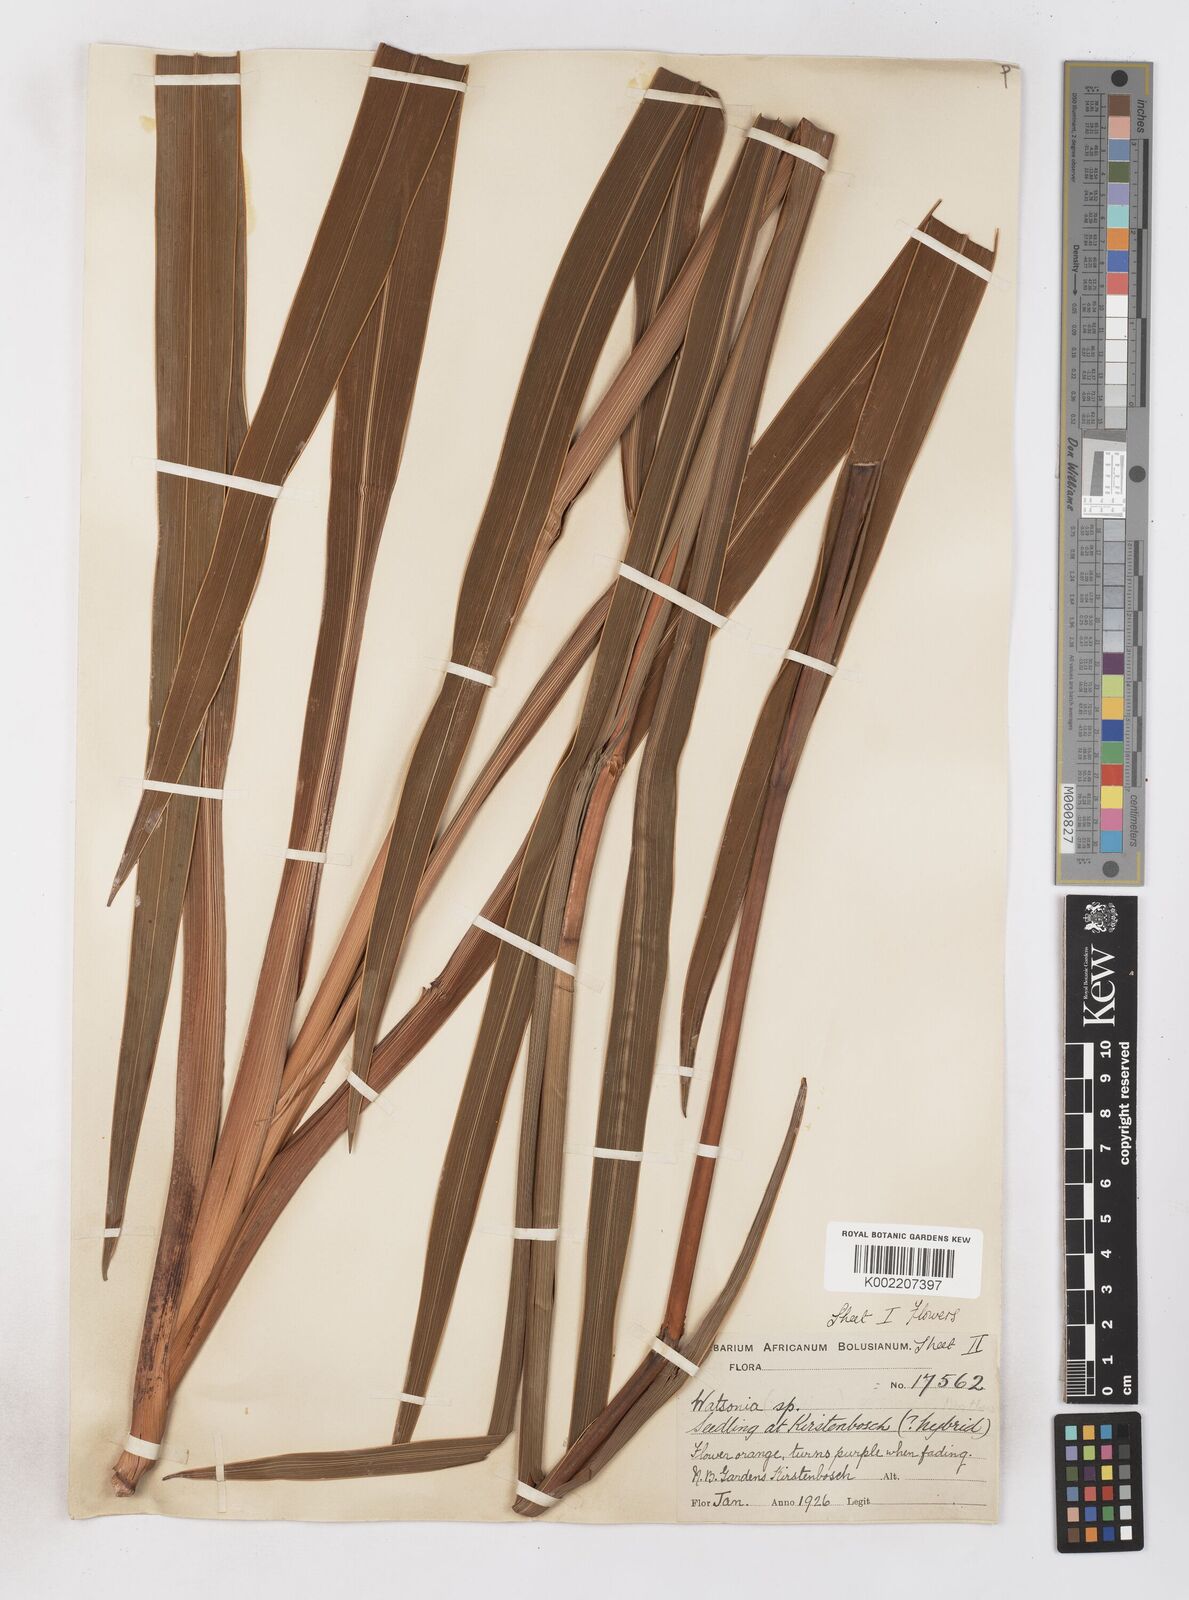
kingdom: Plantae
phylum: Tracheophyta
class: Liliopsida
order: Asparagales
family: Iridaceae
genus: Watsonia
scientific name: Watsonia pillansii
